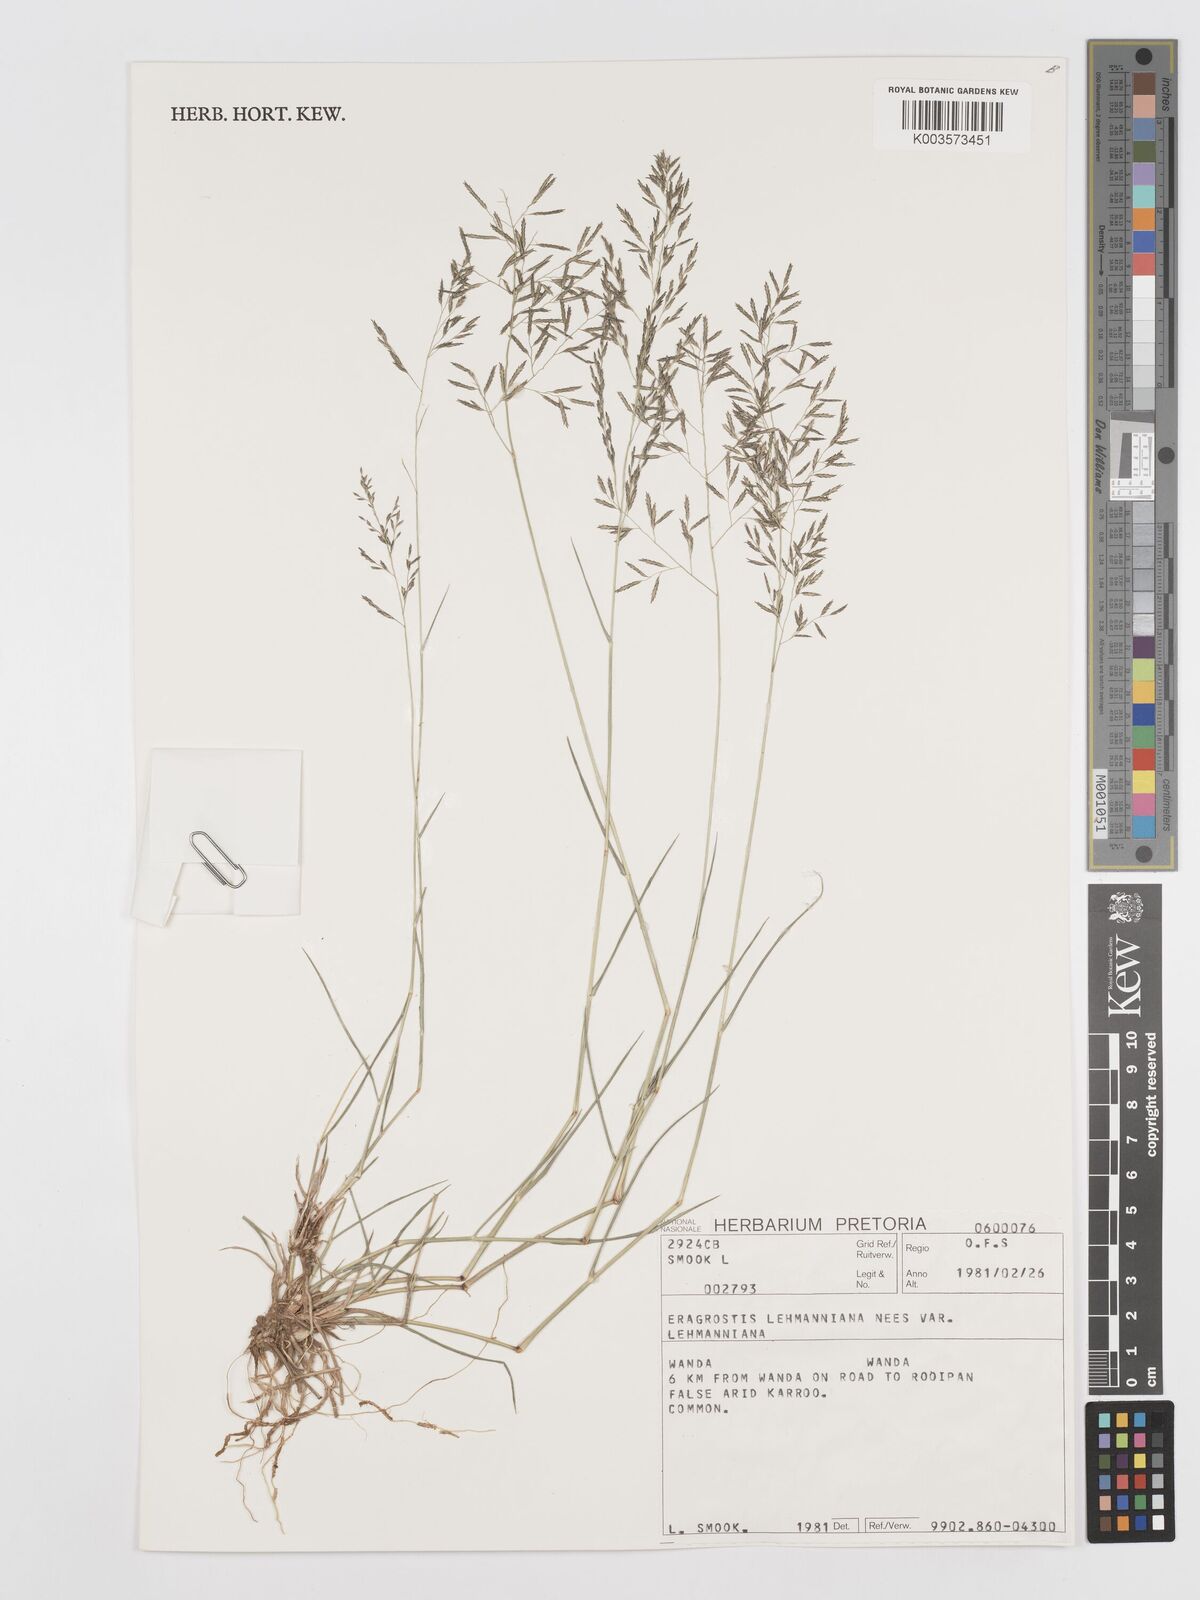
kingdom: Plantae
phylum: Tracheophyta
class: Liliopsida
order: Poales
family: Poaceae
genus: Eragrostis
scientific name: Eragrostis lehmanniana
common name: Lehmann lovegrass
